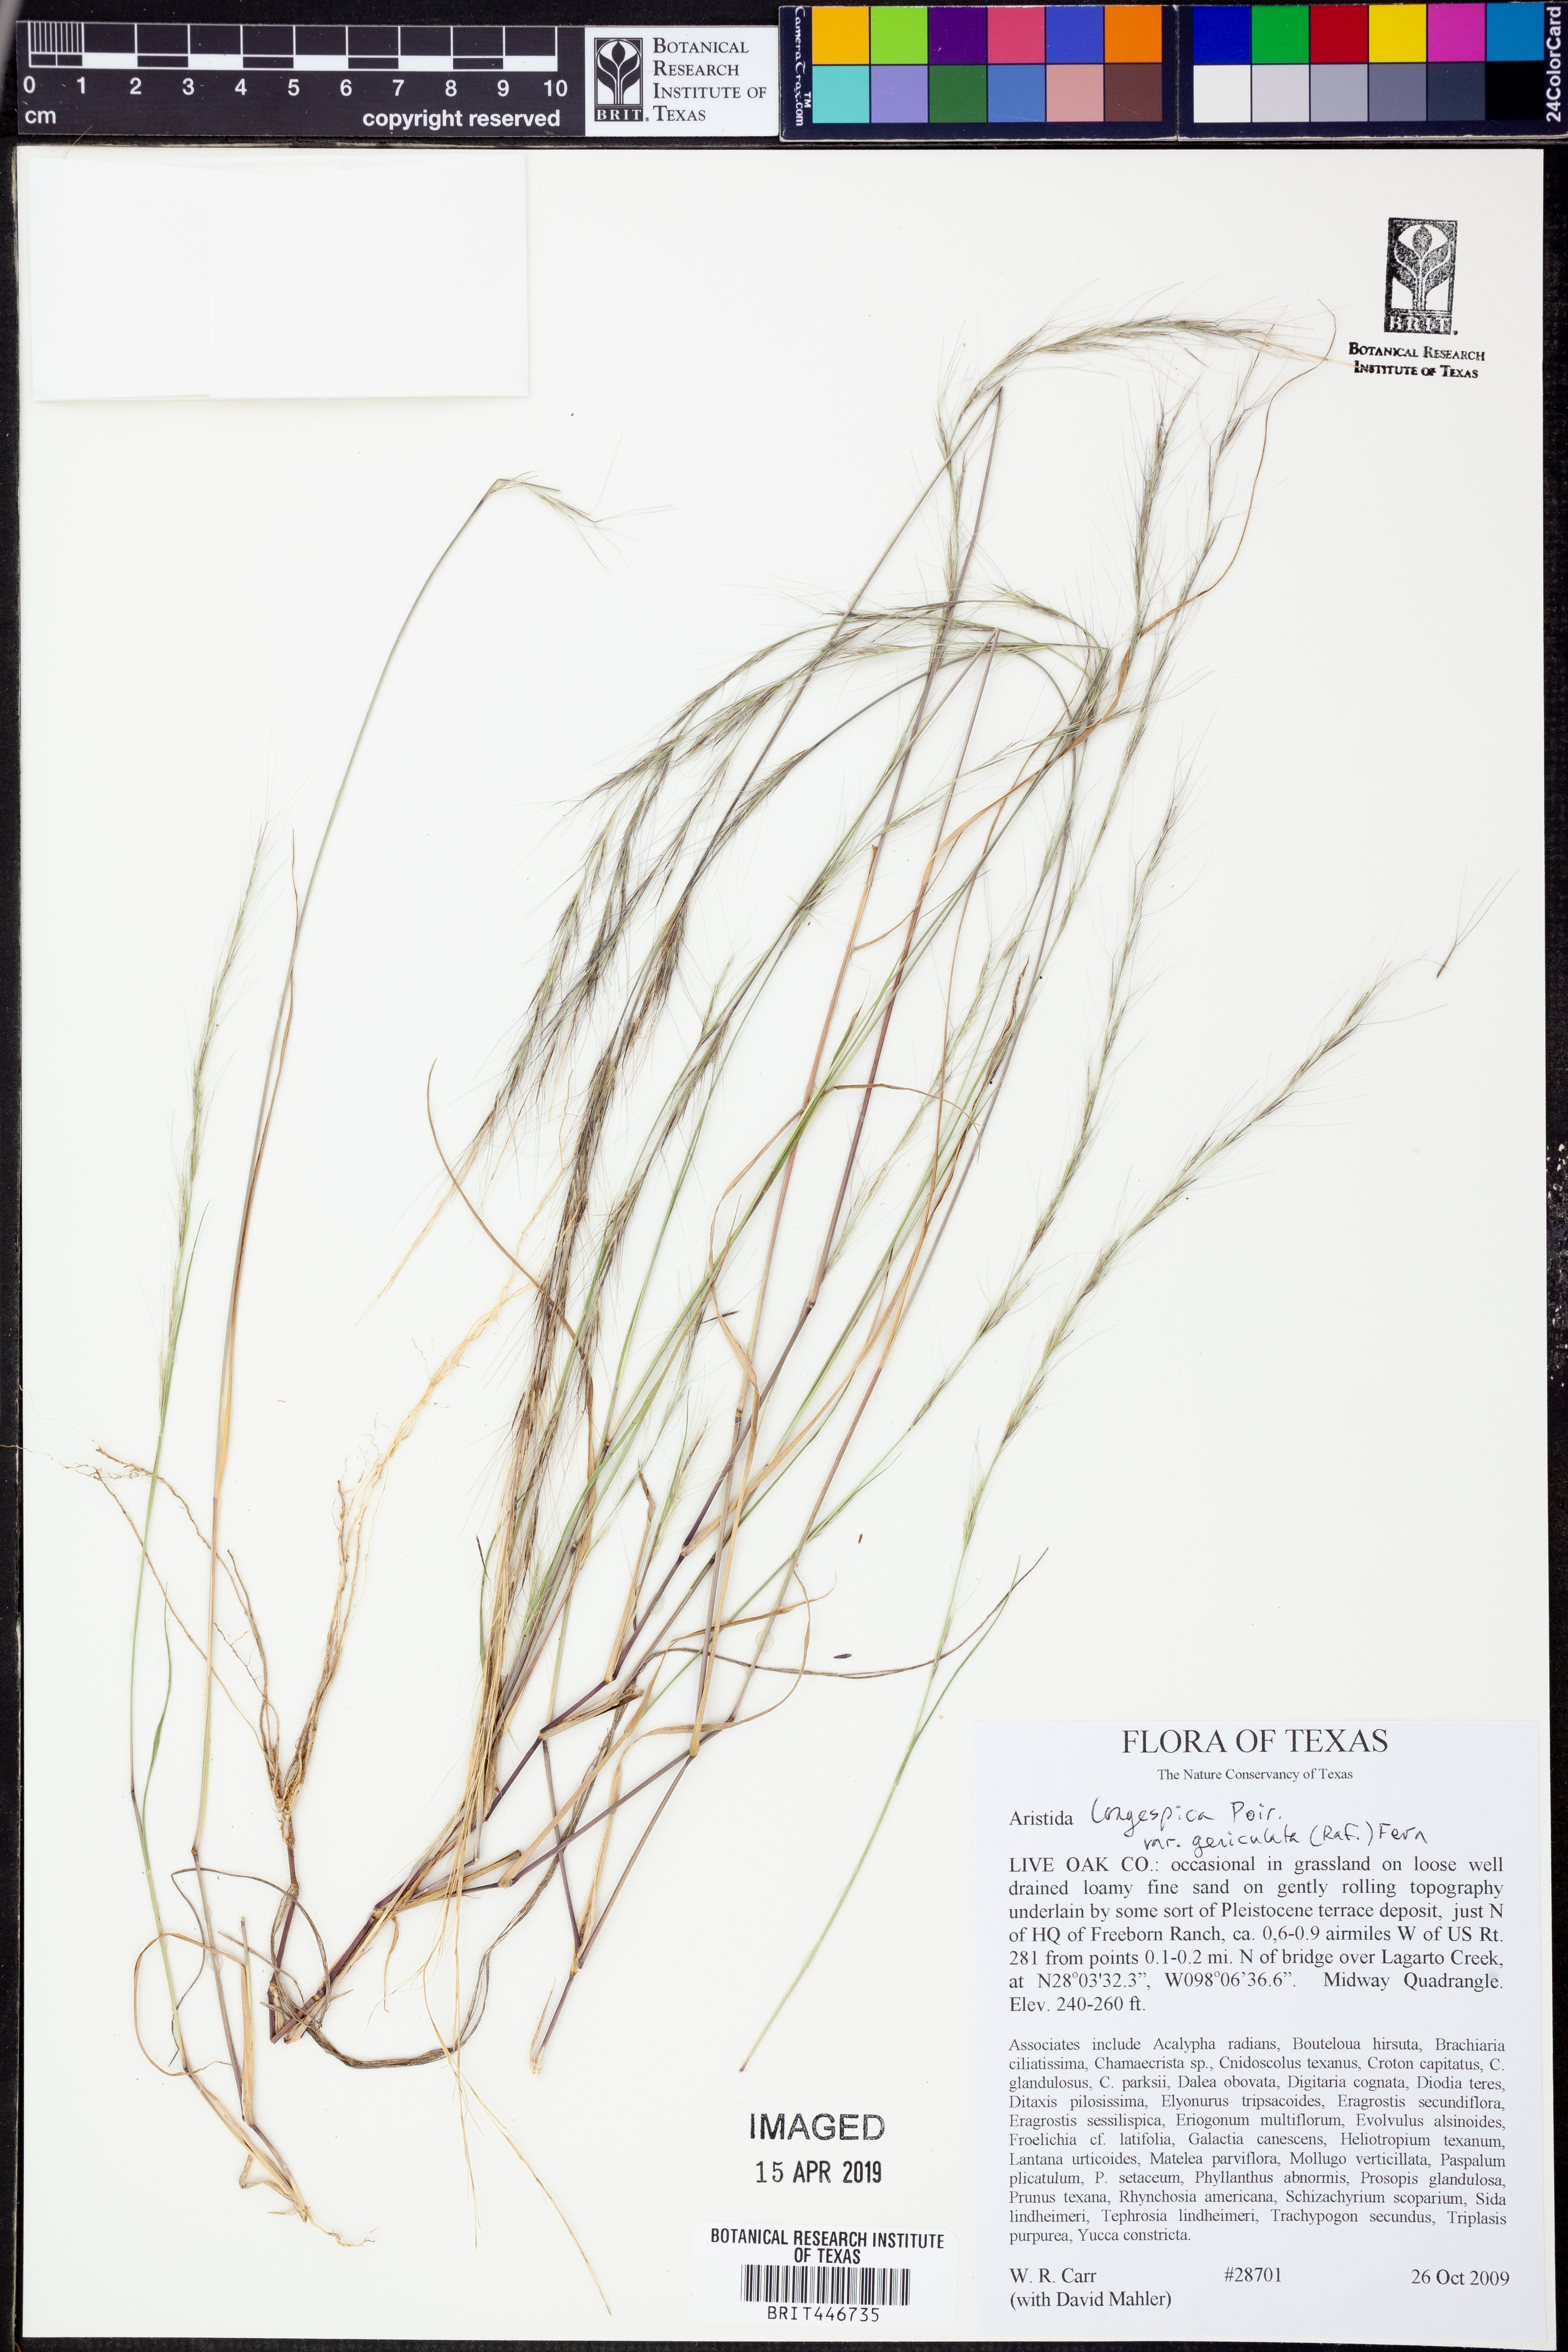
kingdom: Plantae
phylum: Tracheophyta
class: Liliopsida
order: Poales
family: Poaceae
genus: Aristida
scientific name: Aristida
